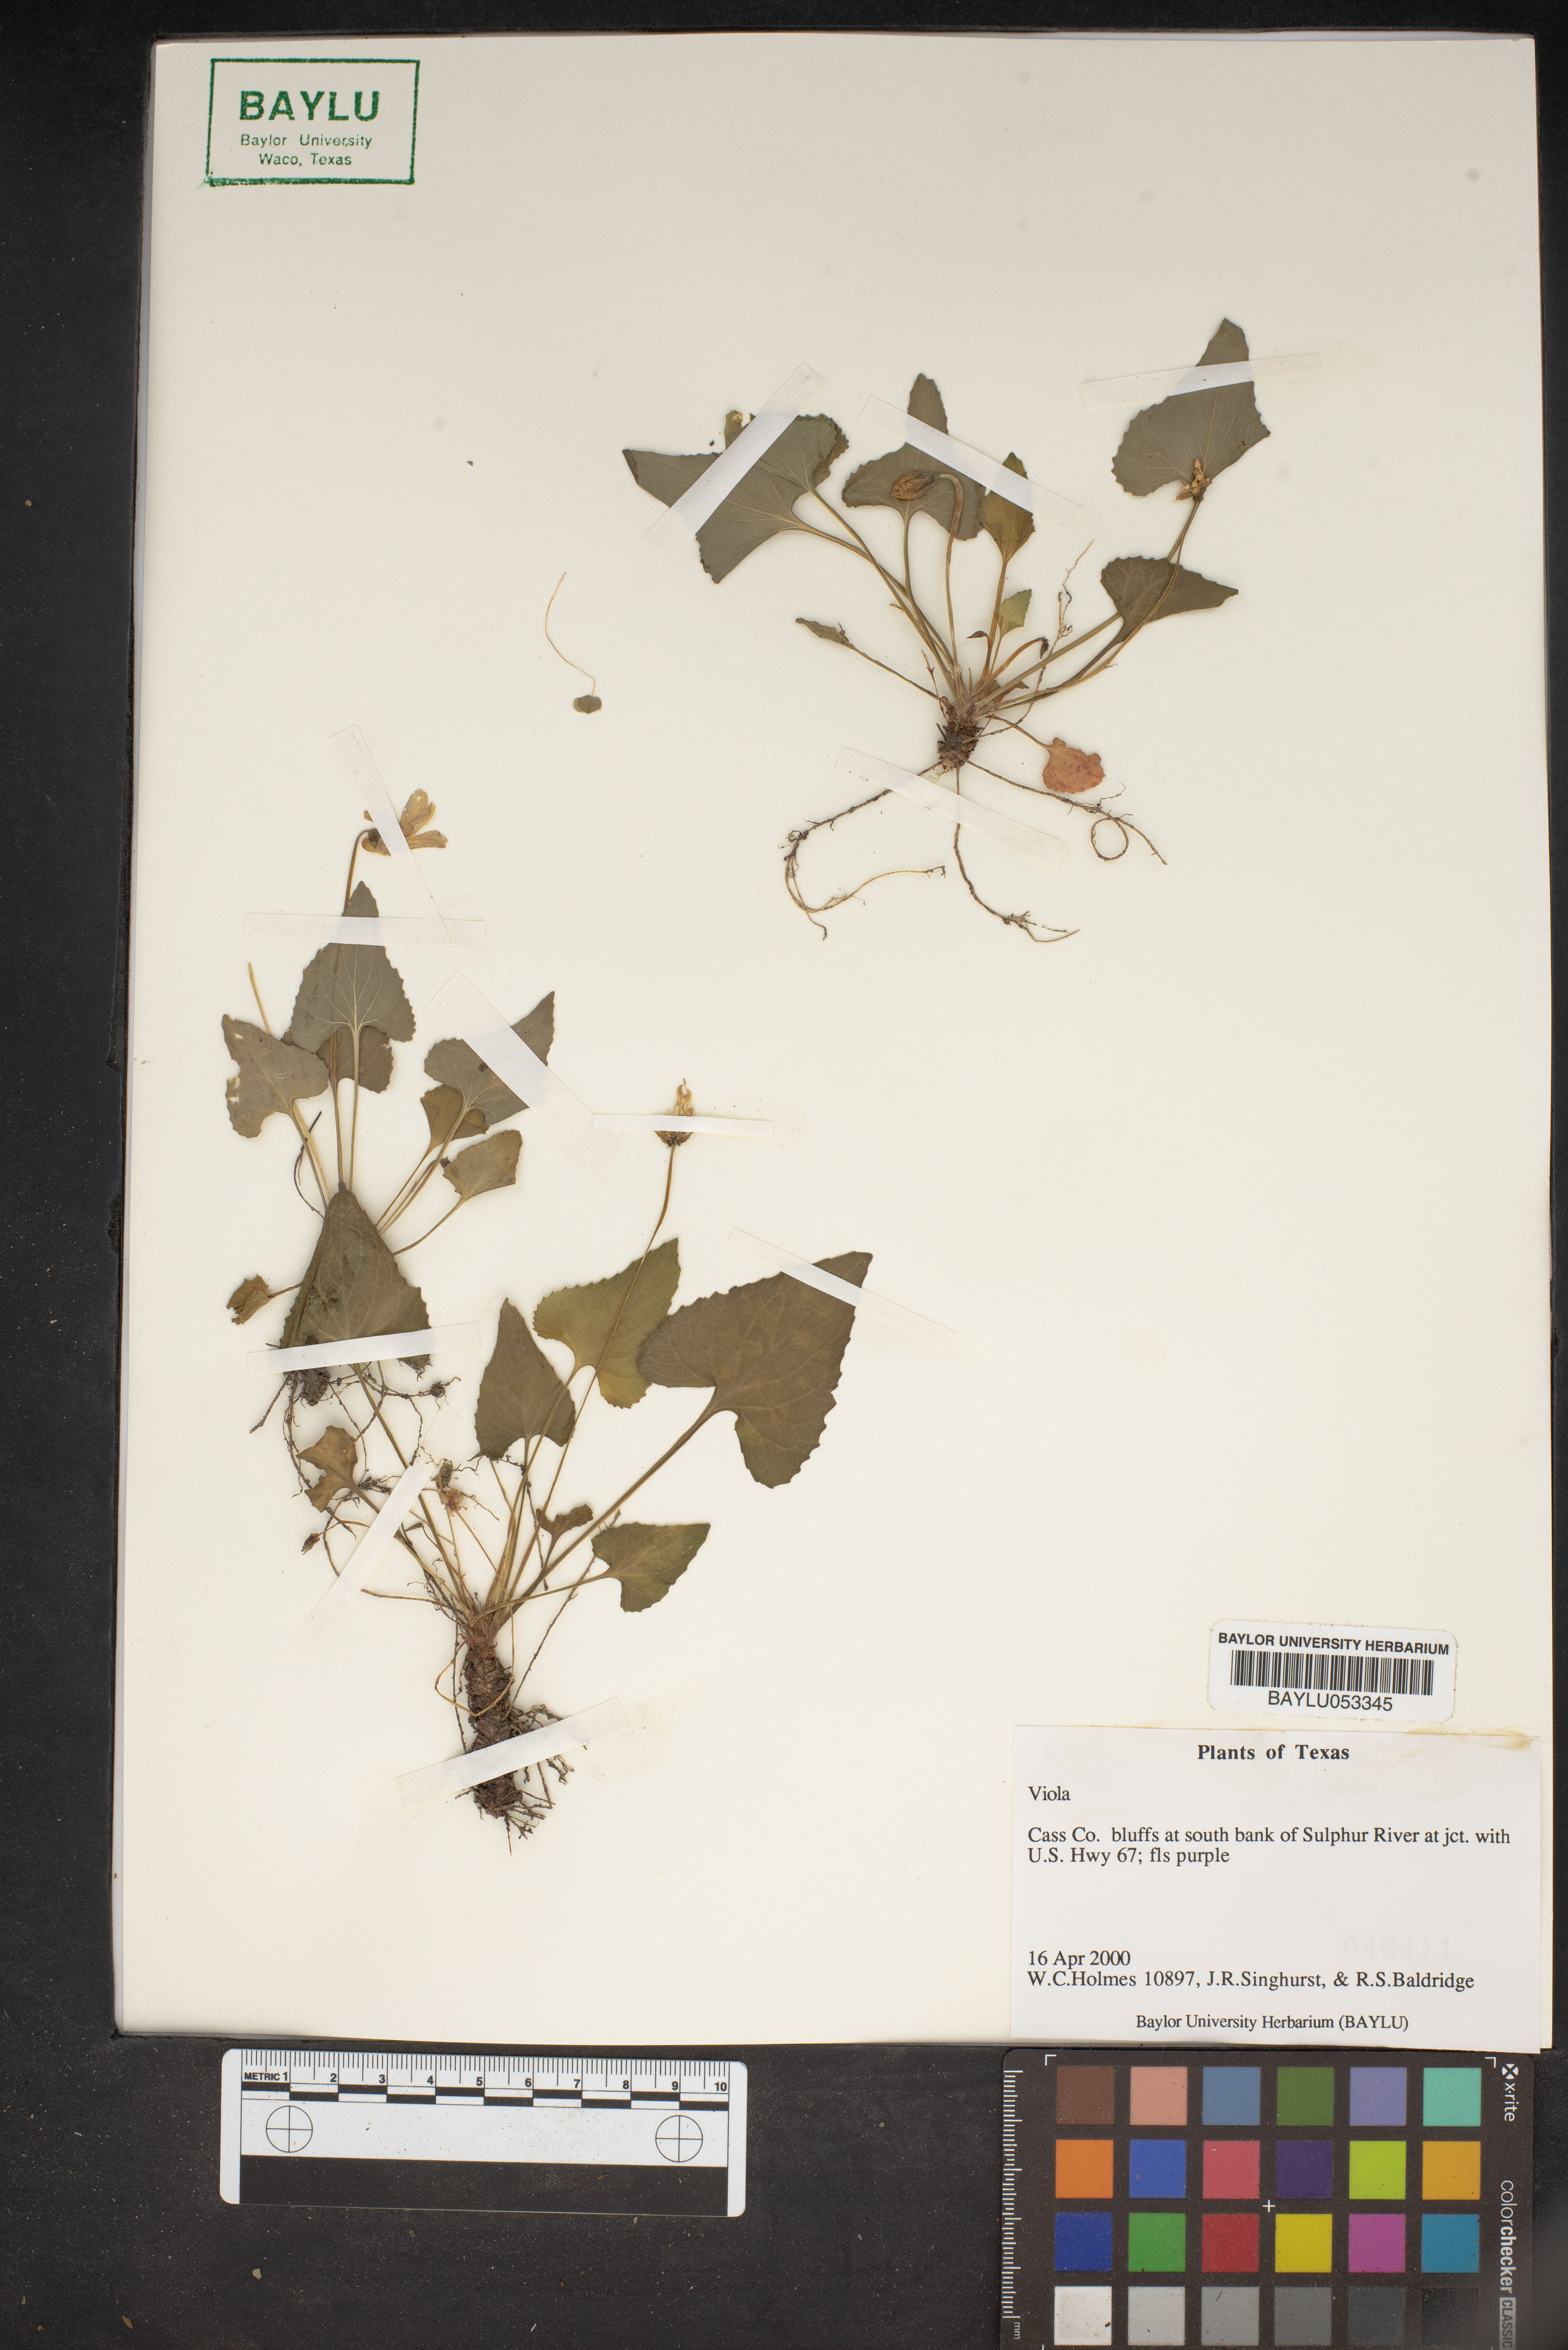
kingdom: Plantae
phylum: Tracheophyta
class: Magnoliopsida
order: Malpighiales
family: Violaceae
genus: Viola
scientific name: Viola
